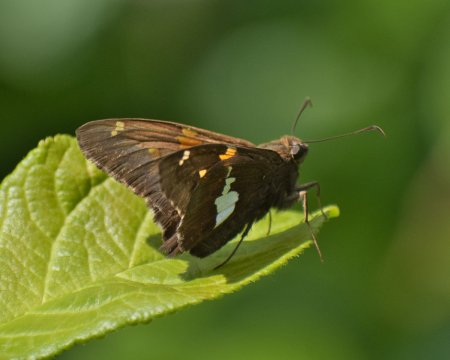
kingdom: Animalia
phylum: Arthropoda
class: Insecta
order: Lepidoptera
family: Hesperiidae
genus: Epargyreus
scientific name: Epargyreus clarus
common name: Silver-spotted Skipper
